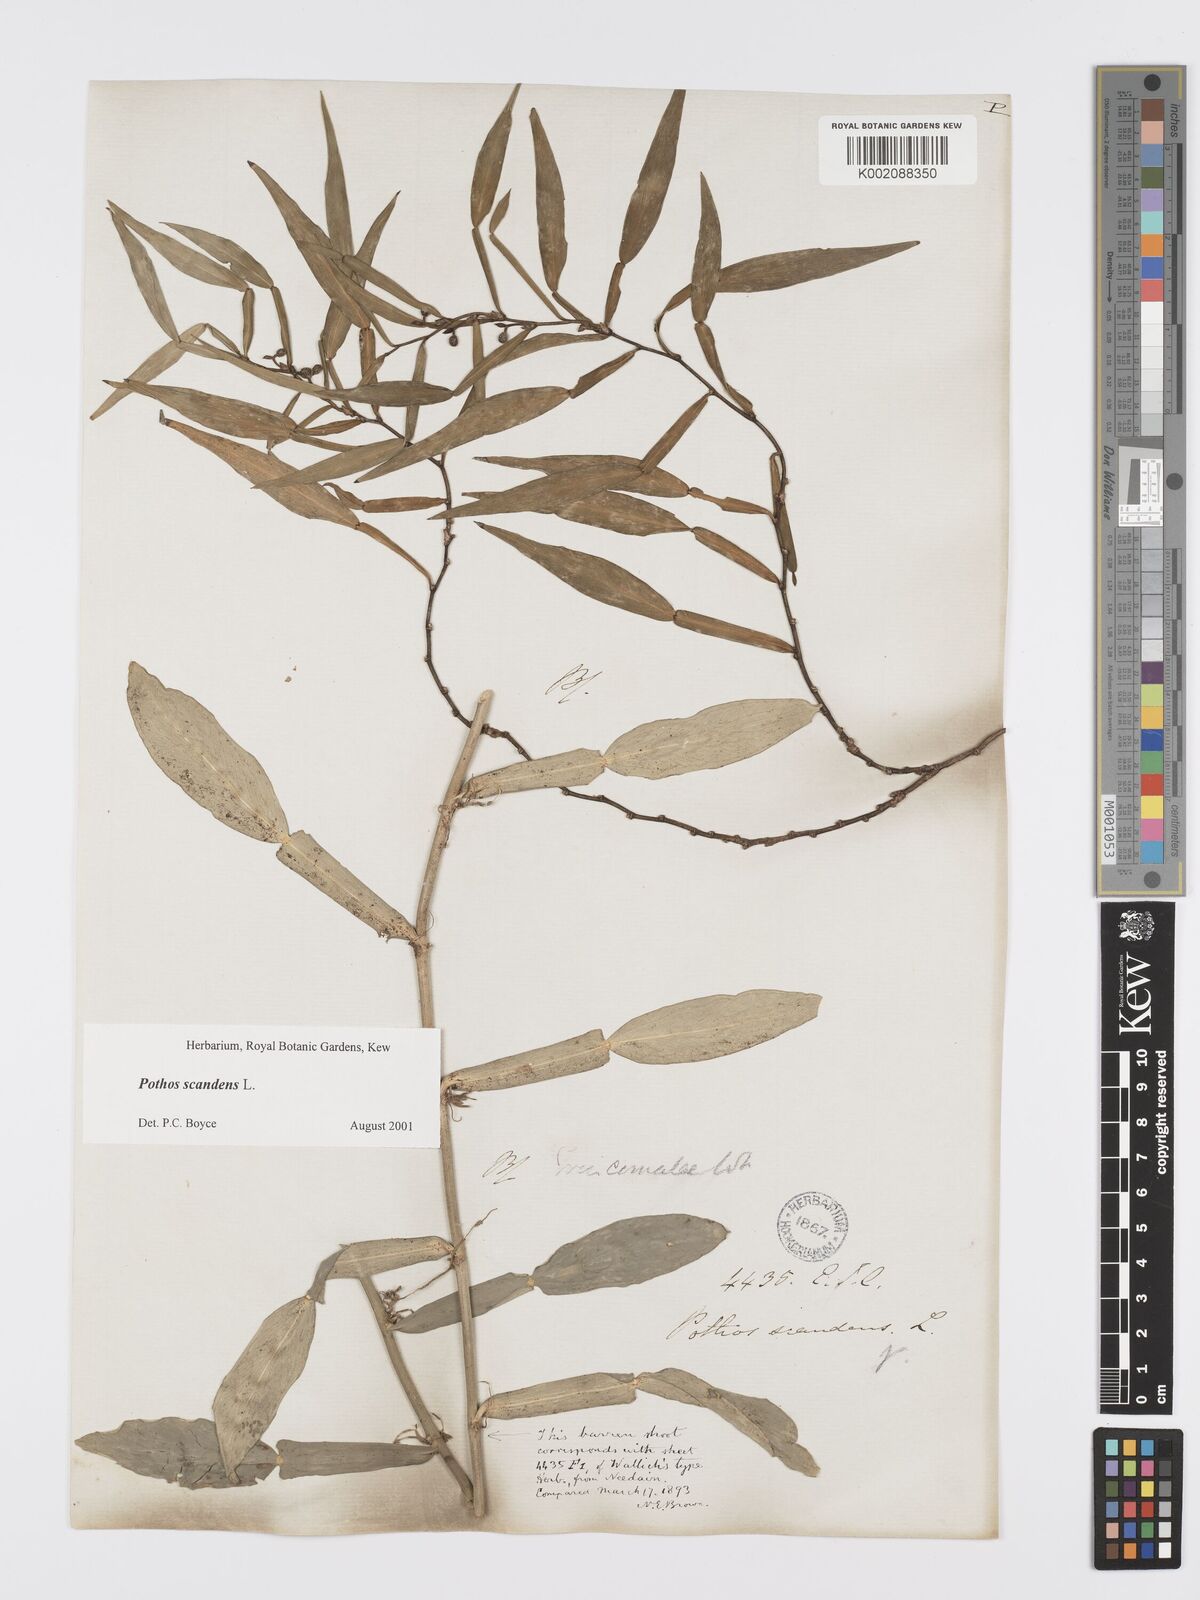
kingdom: Plantae
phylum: Tracheophyta
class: Liliopsida
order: Alismatales
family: Araceae
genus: Pothos
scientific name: Pothos scandens
